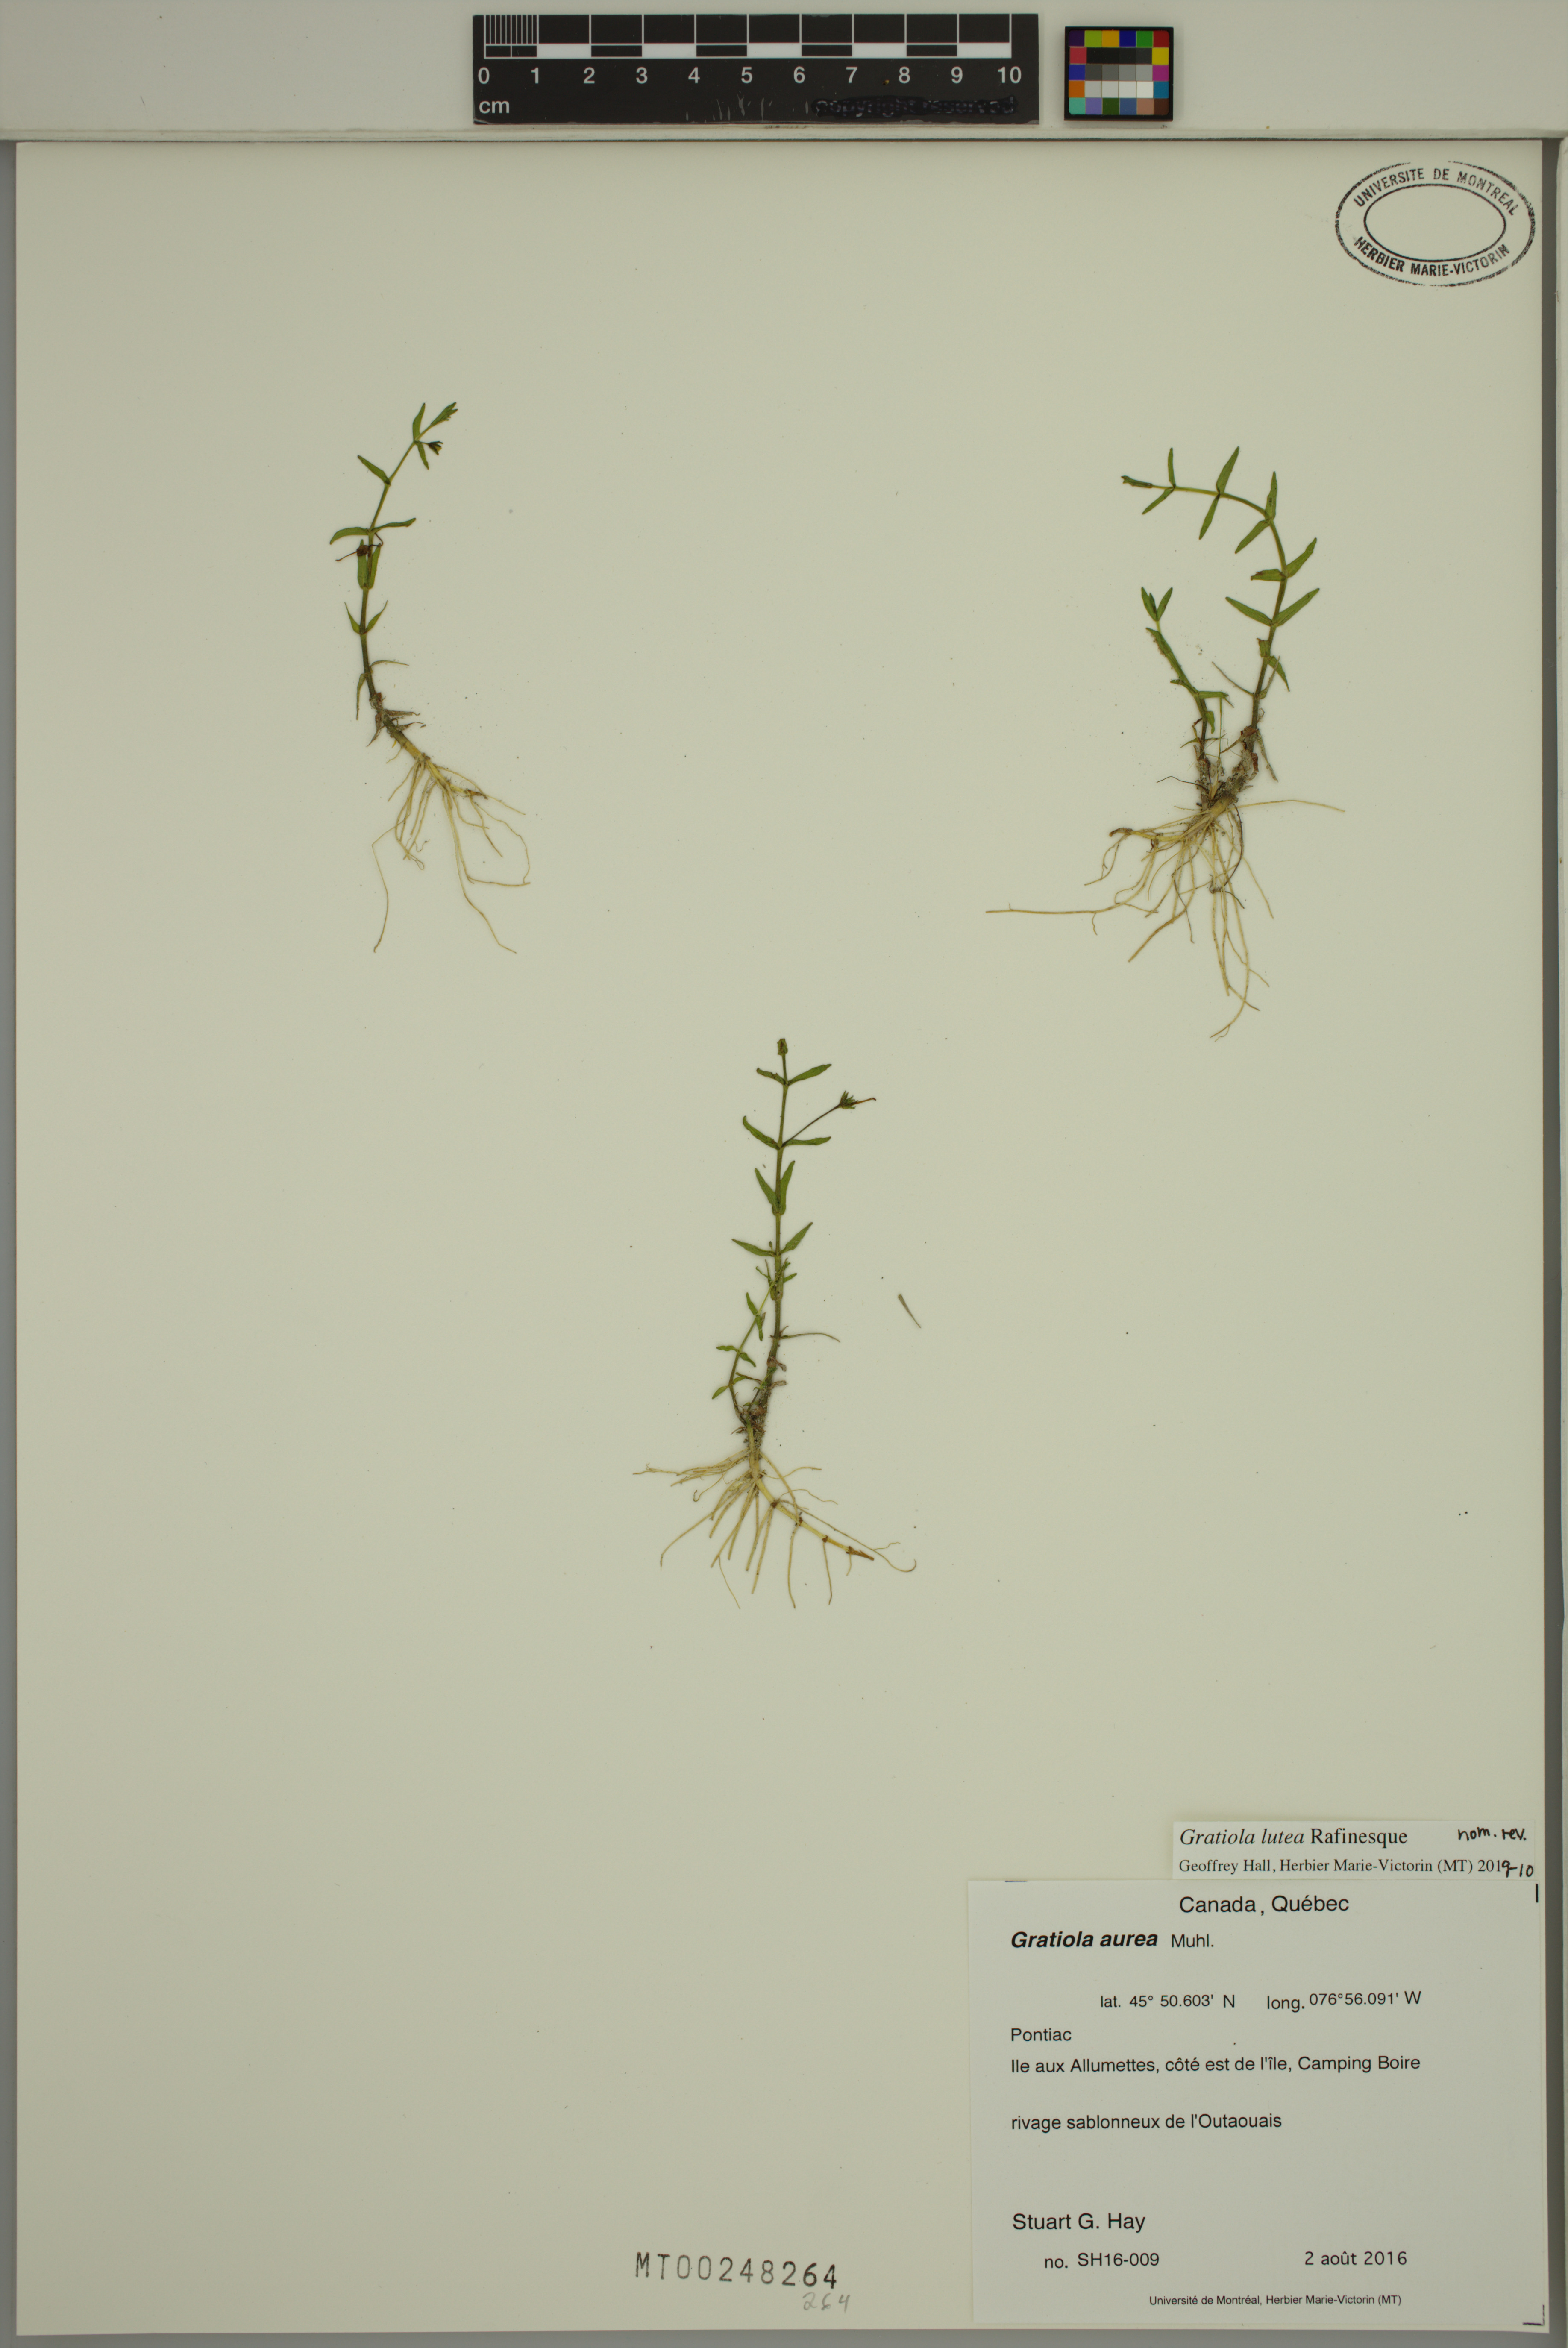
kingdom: Plantae
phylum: Tracheophyta
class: Magnoliopsida
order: Lamiales
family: Plantaginaceae
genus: Gratiola
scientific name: Gratiola lutea
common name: Golden hedge-hyssop
